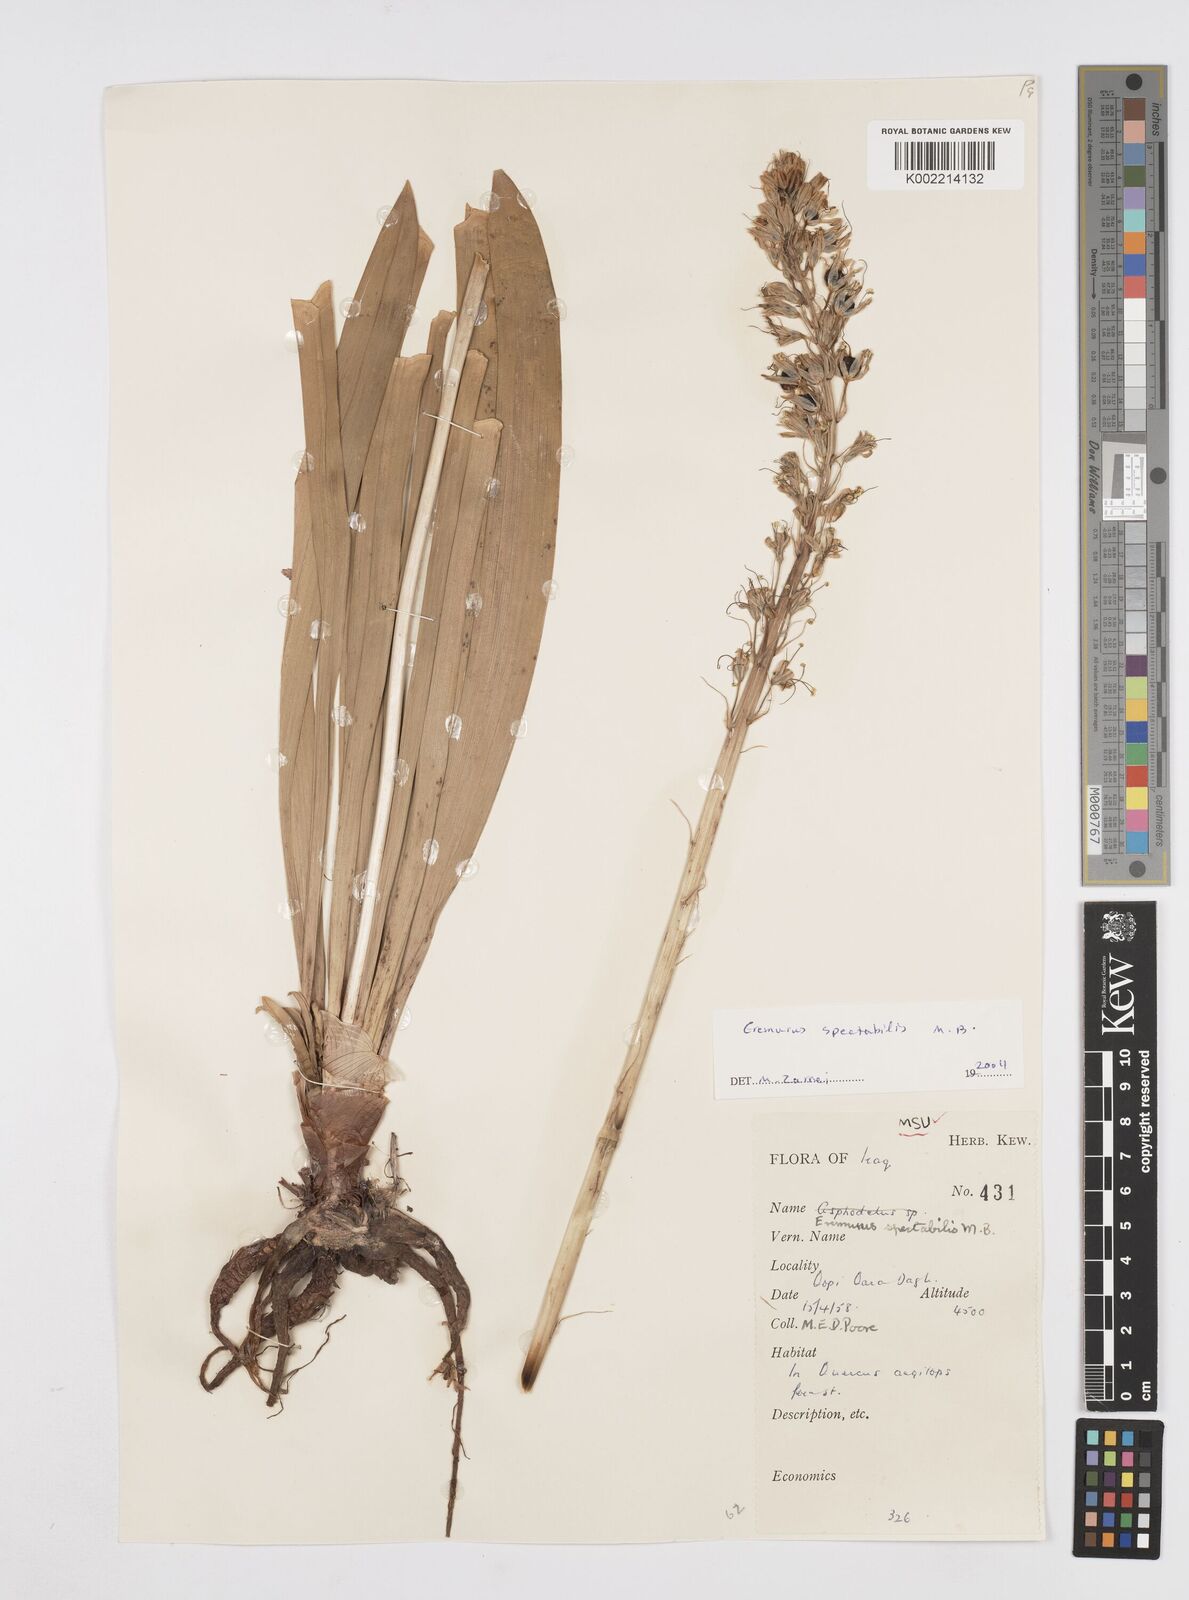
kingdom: Plantae
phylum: Tracheophyta
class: Liliopsida
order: Asparagales
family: Asphodelaceae
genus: Eremurus
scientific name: Eremurus spectabilis
